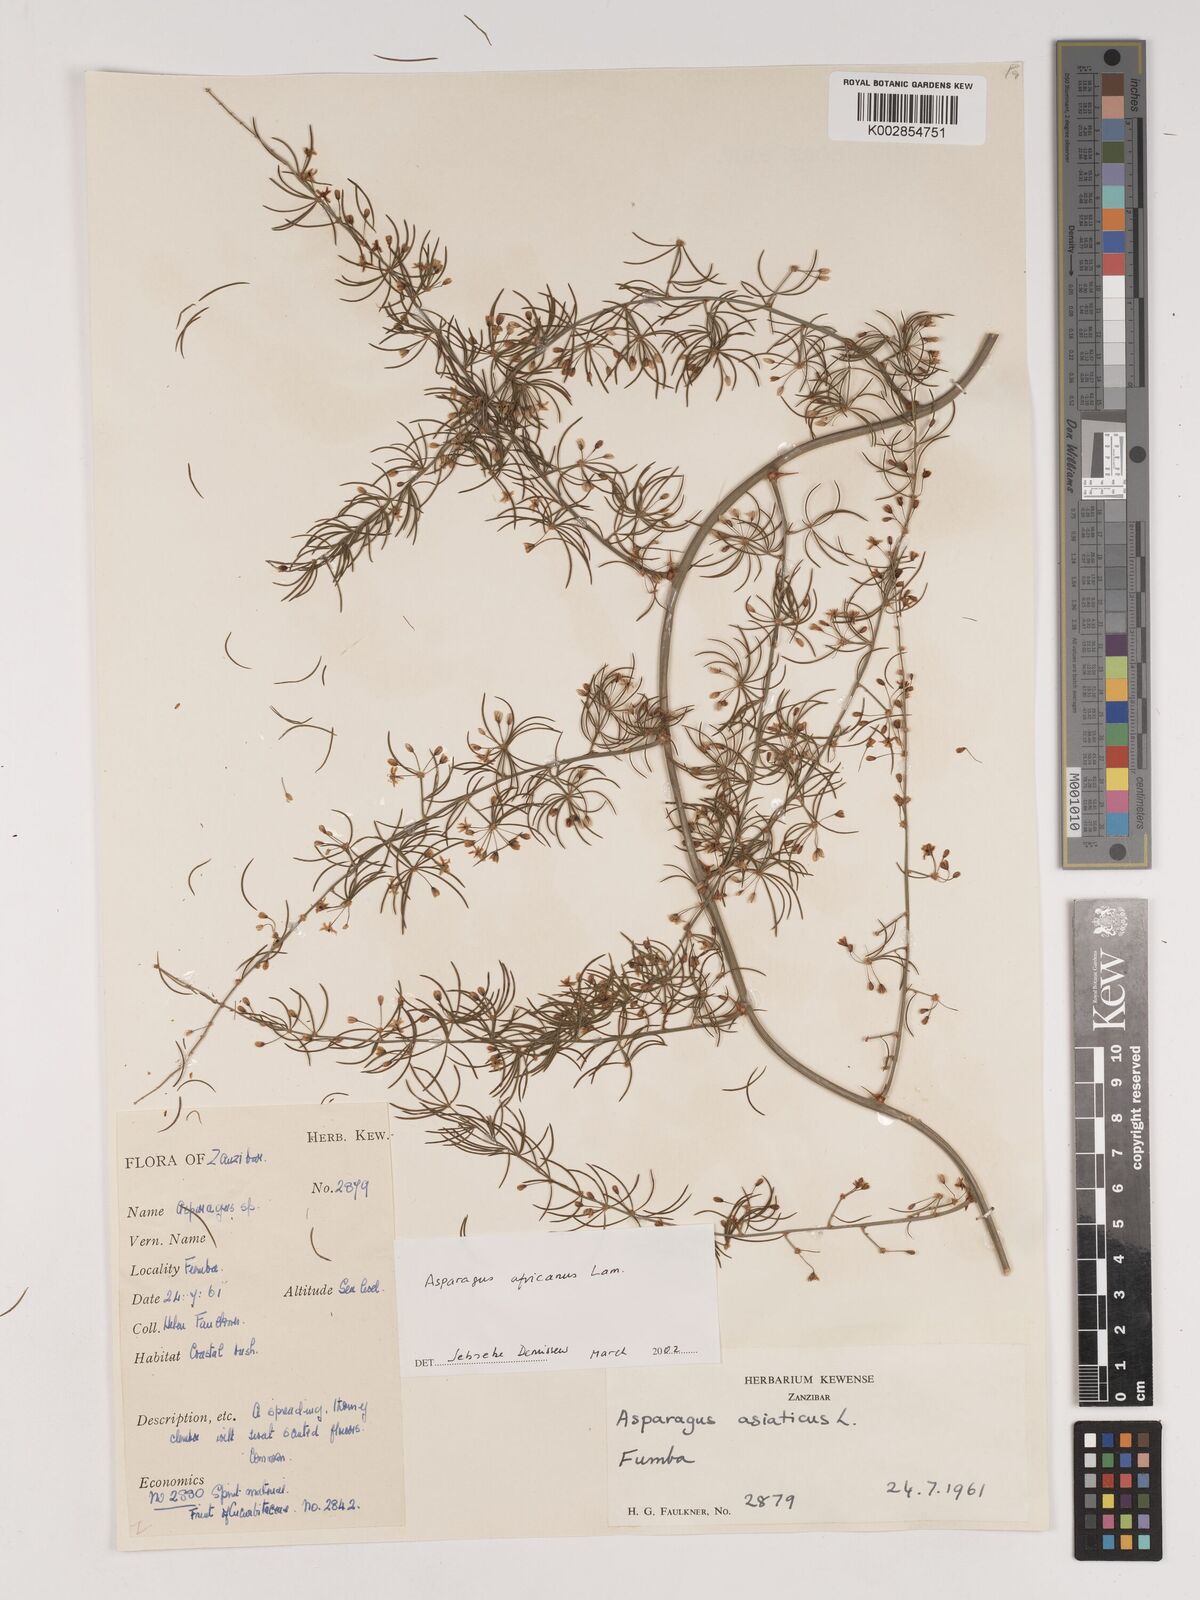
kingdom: Plantae
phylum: Tracheophyta
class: Liliopsida
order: Asparagales
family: Asparagaceae
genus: Asparagus
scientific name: Asparagus africanus
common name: Asparagus-fern
